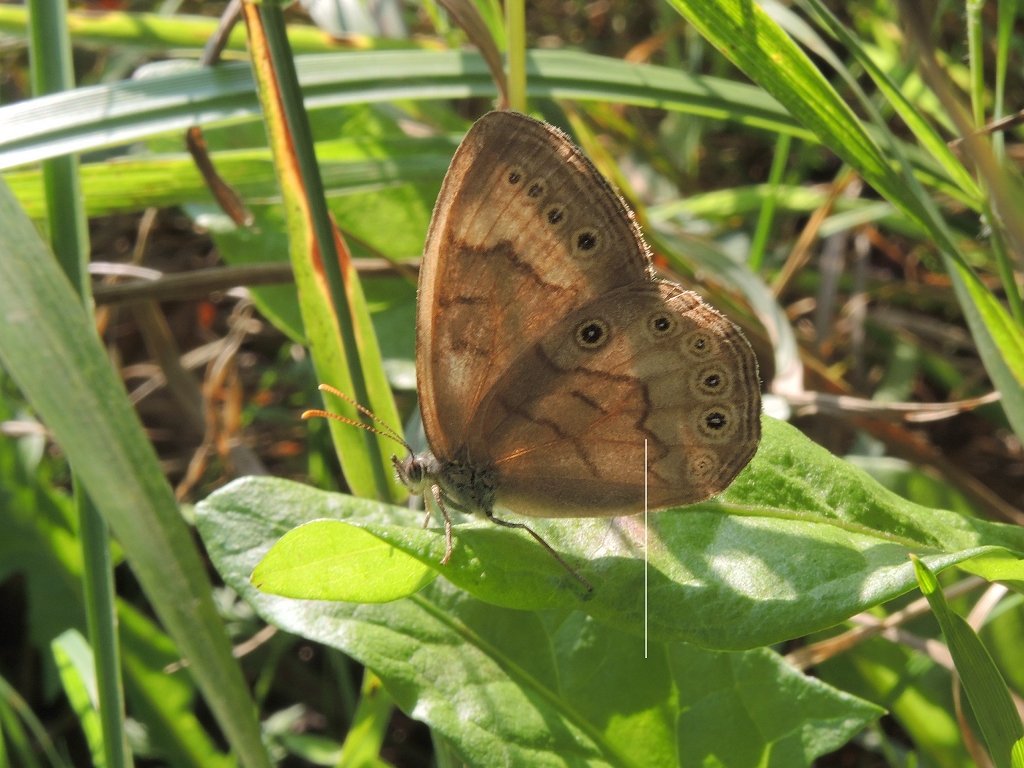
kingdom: Animalia
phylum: Arthropoda
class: Insecta
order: Lepidoptera
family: Nymphalidae
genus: Lethe
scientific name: Lethe
